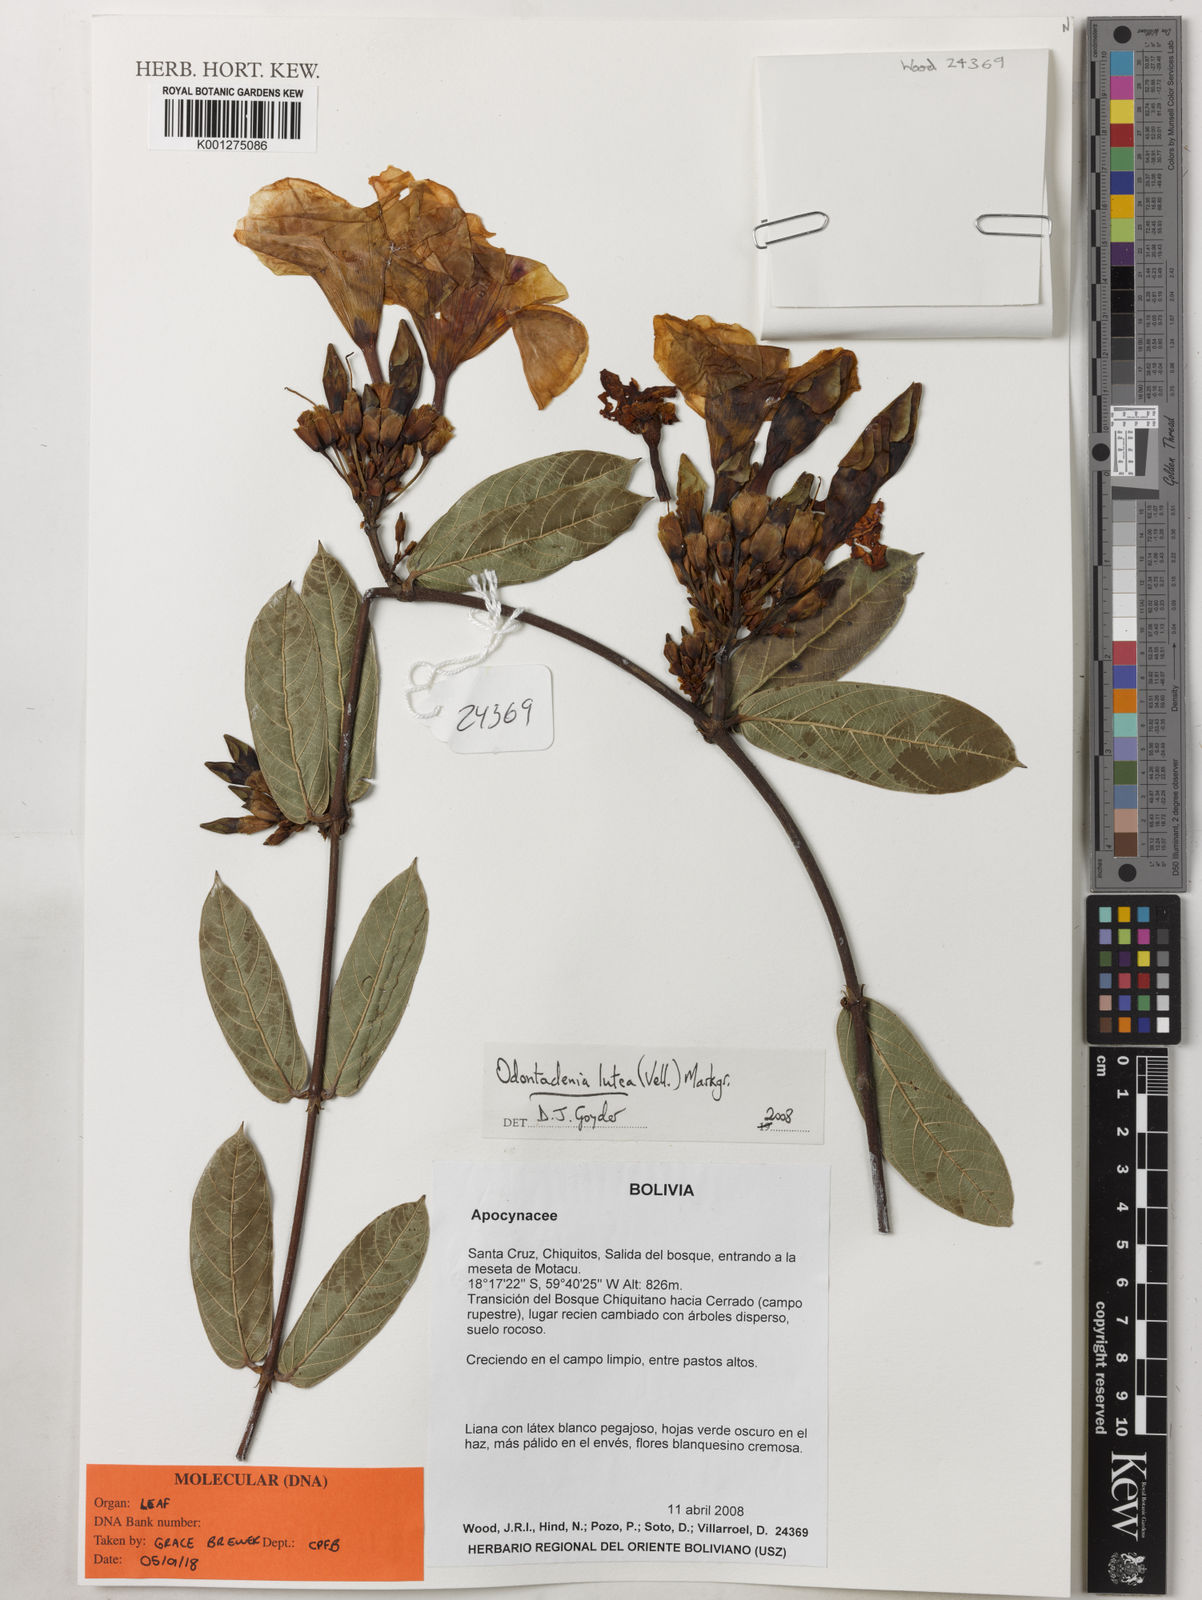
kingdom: Plantae
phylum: Tracheophyta
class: Magnoliopsida
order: Gentianales
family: Apocynaceae
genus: Odontadenia
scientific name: Odontadenia lutea
